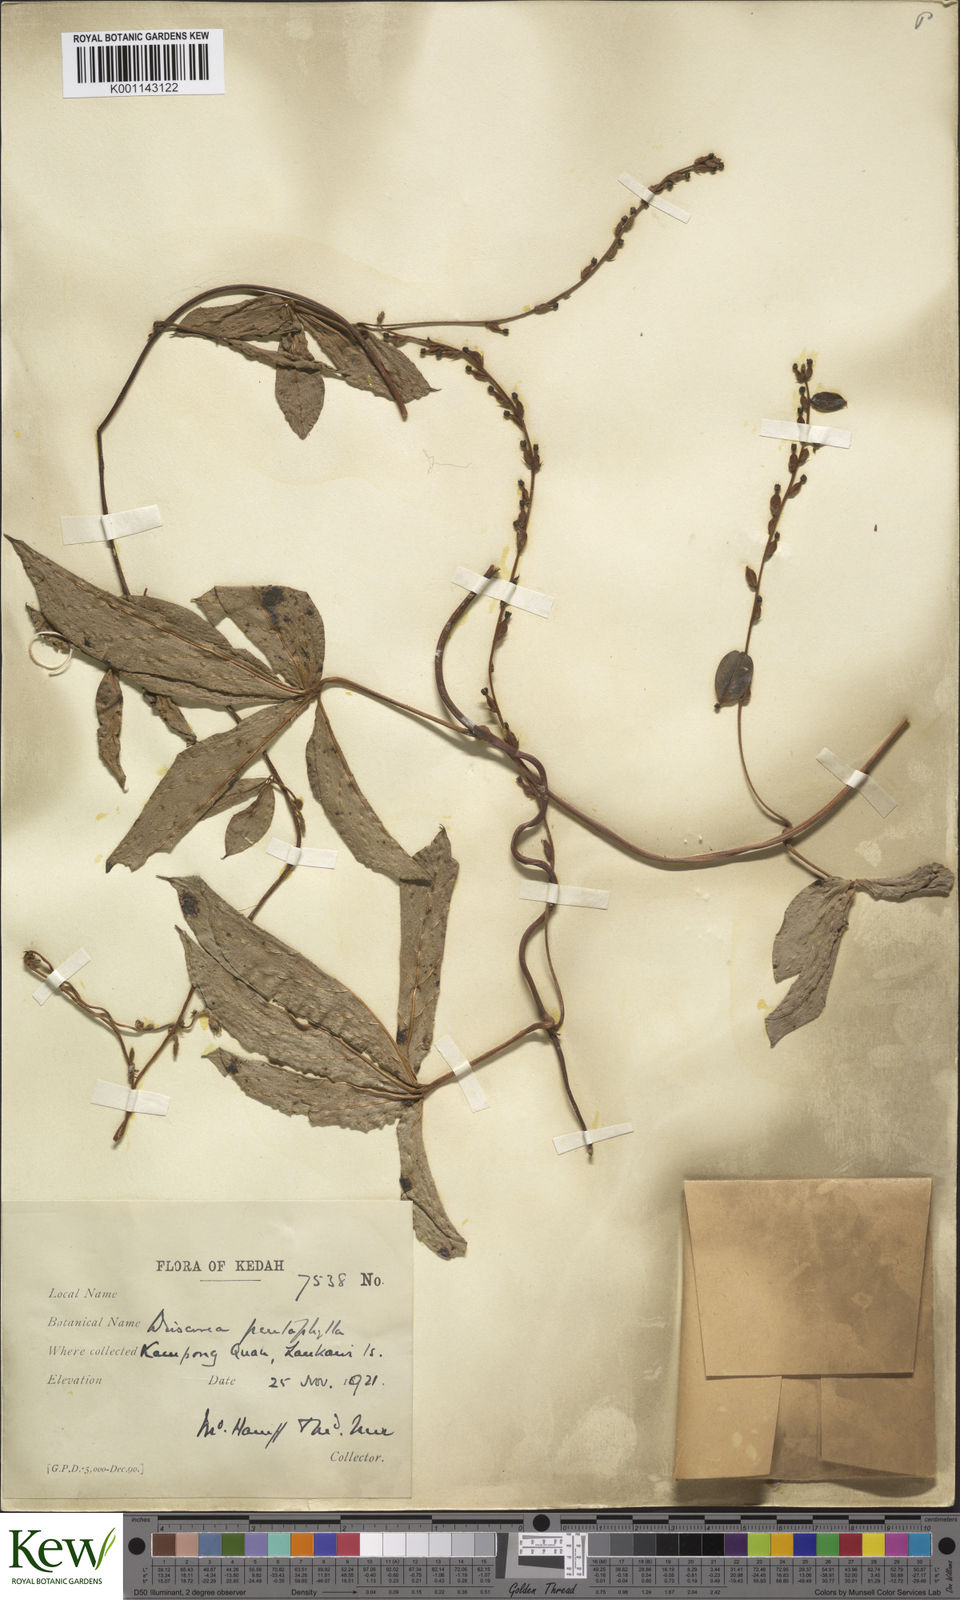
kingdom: Plantae
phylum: Tracheophyta
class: Liliopsida
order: Dioscoreales
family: Dioscoreaceae
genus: Dioscorea
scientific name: Dioscorea pentaphylla
